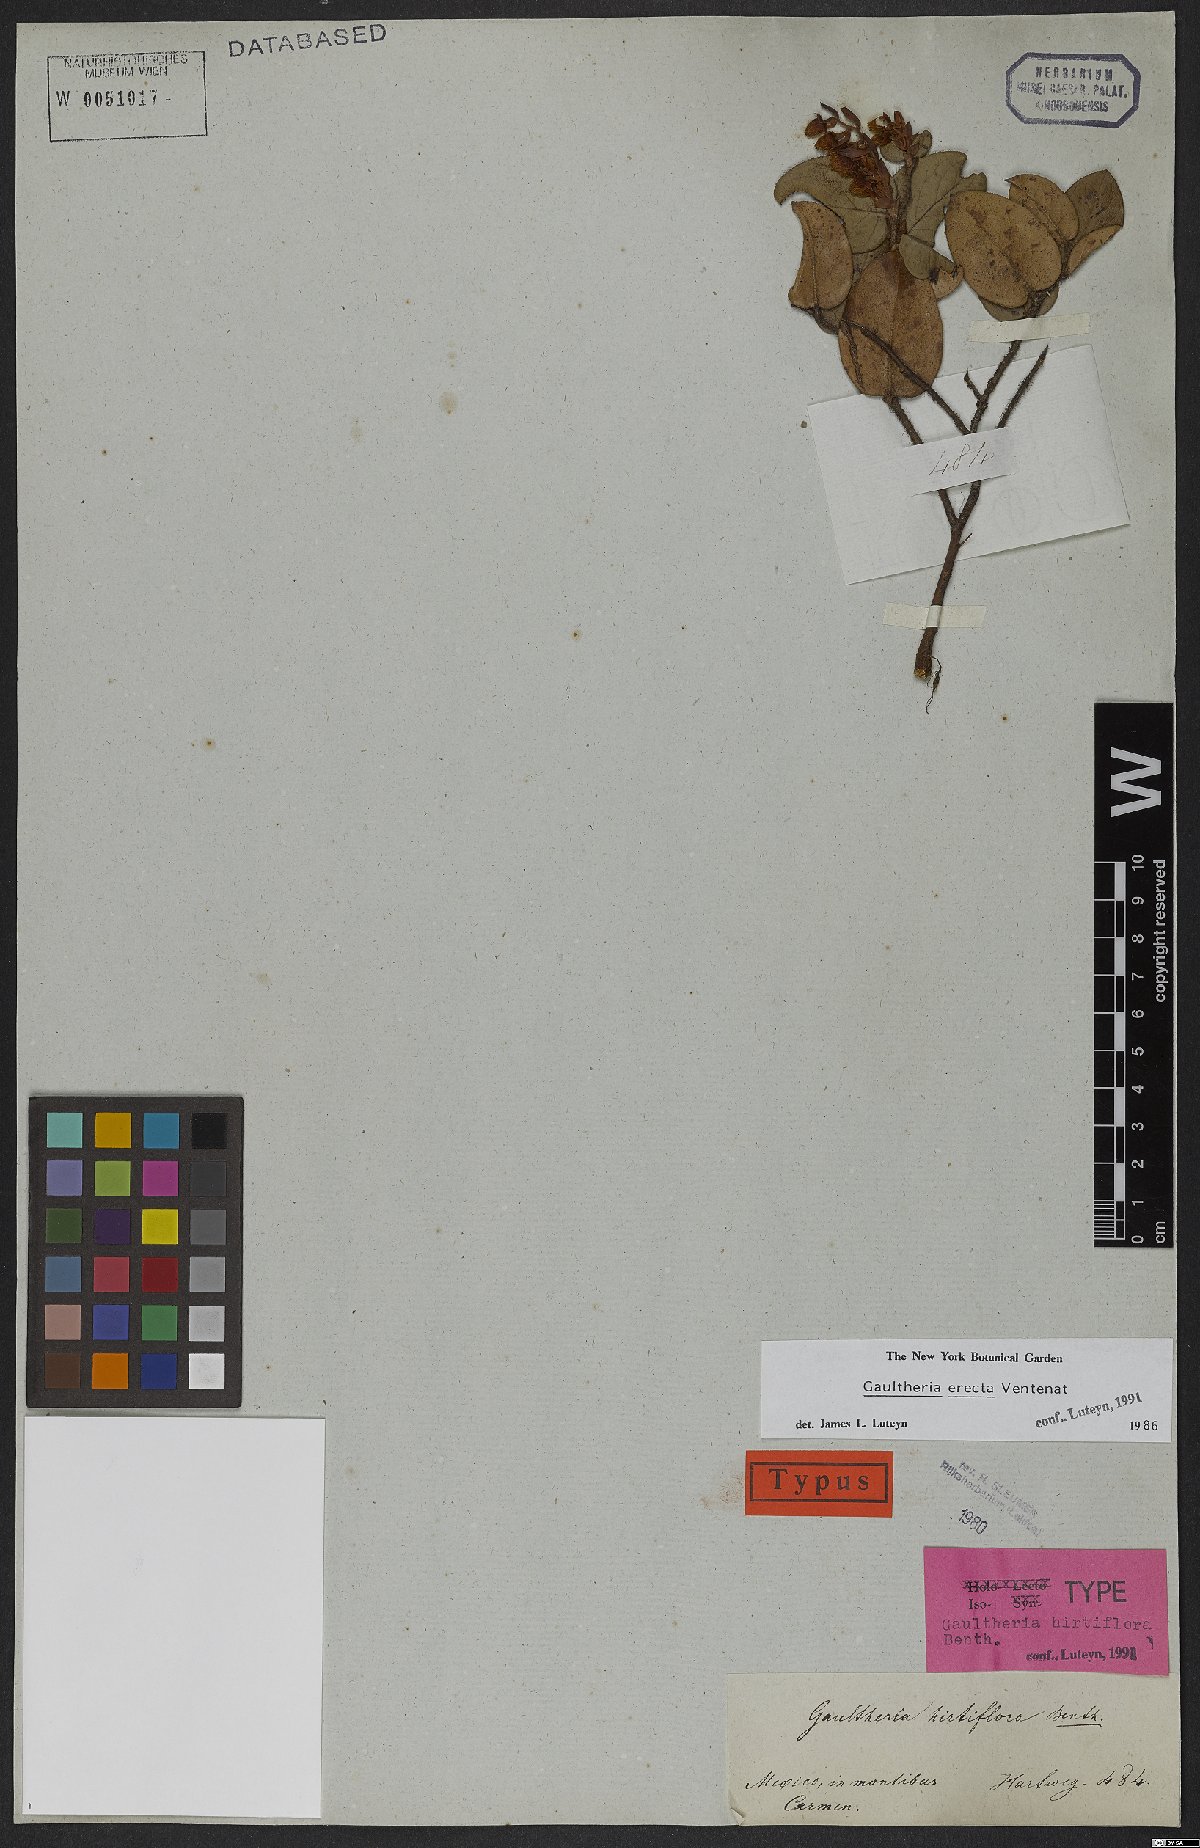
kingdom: Plantae
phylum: Tracheophyta
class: Magnoliopsida
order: Ericales
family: Ericaceae
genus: Gaultheria
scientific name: Gaultheria erecta
